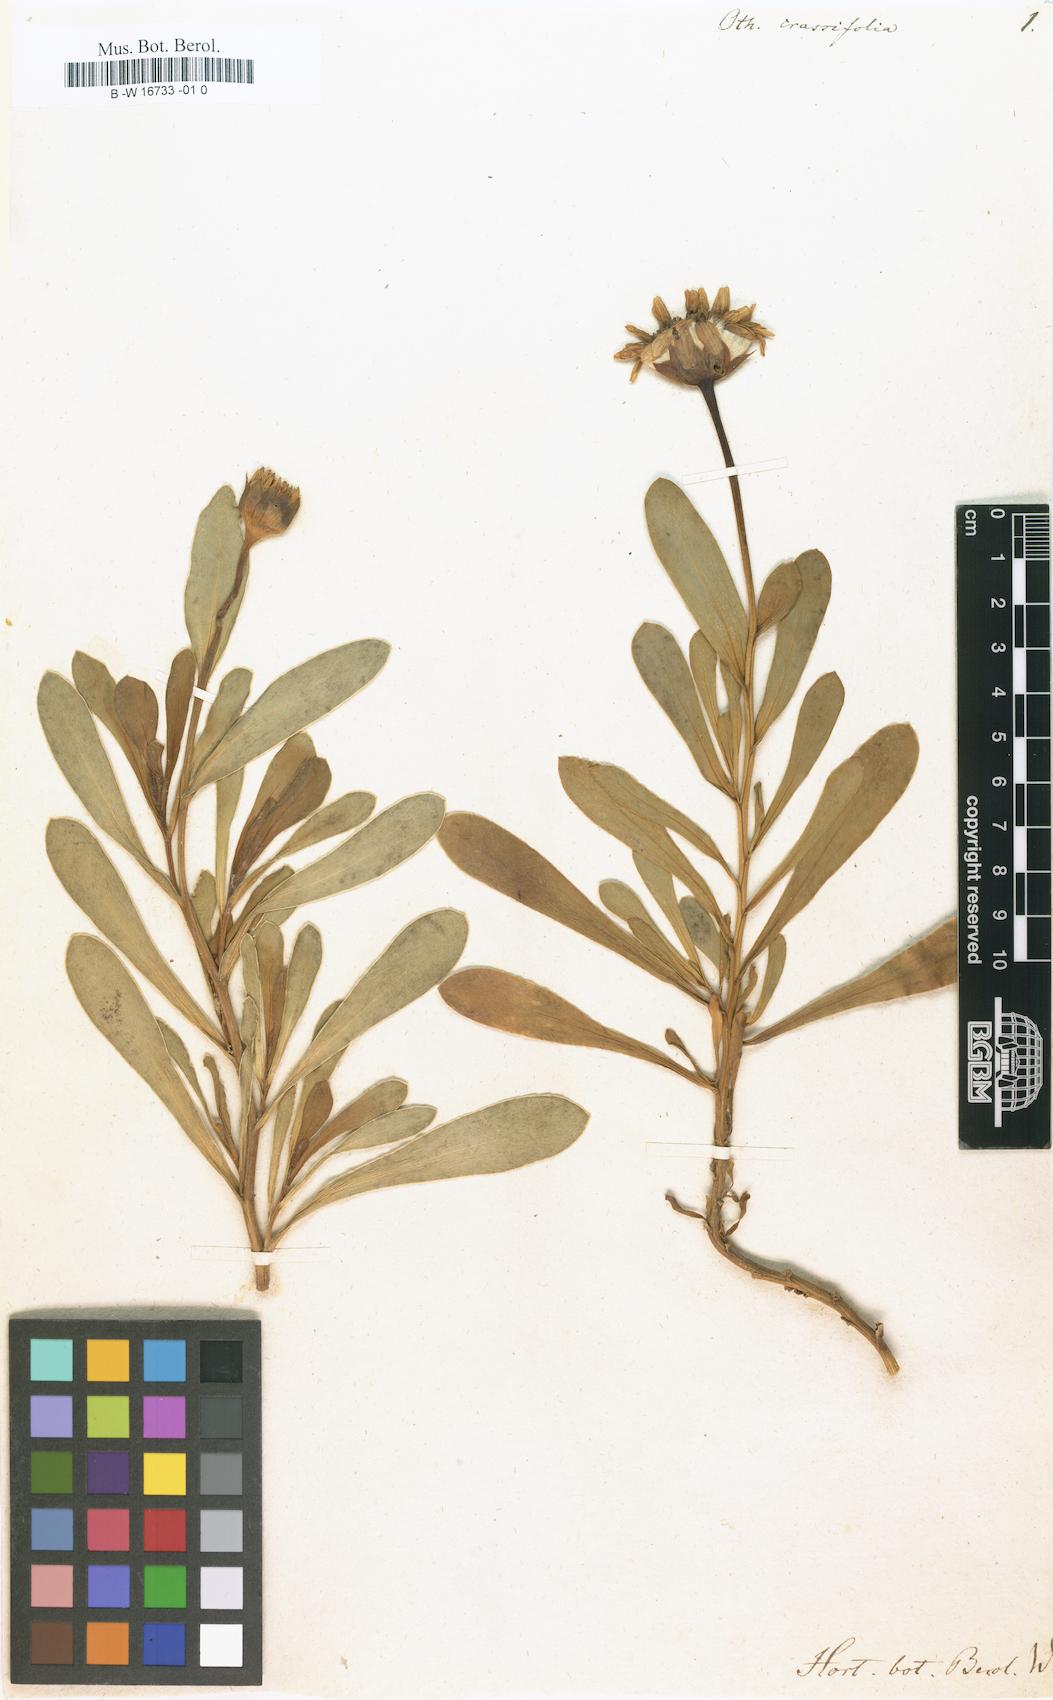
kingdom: Plantae
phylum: Tracheophyta
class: Magnoliopsida
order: Asterales
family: Asteraceae
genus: Crassothonna
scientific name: Crassothonna capensis
